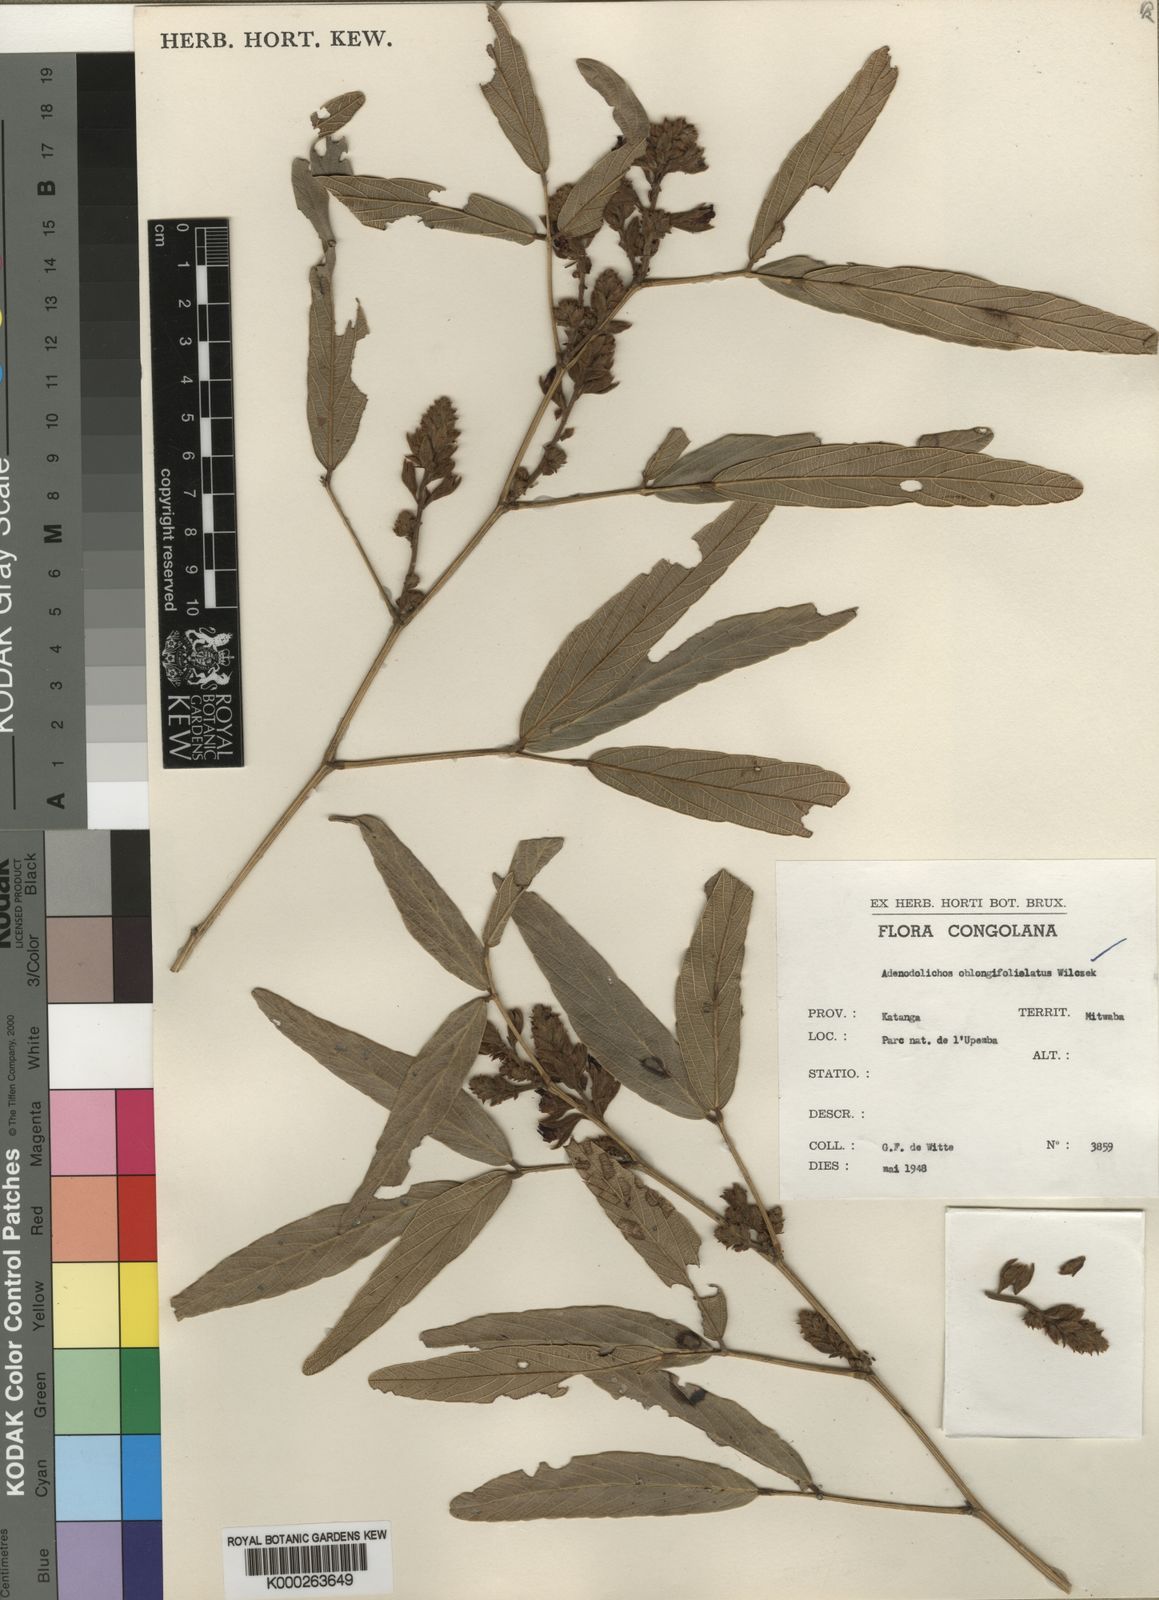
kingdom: Plantae
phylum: Tracheophyta
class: Magnoliopsida
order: Fabales
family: Fabaceae
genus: Adenodolichos
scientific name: Adenodolichos oblongifoliolatus
